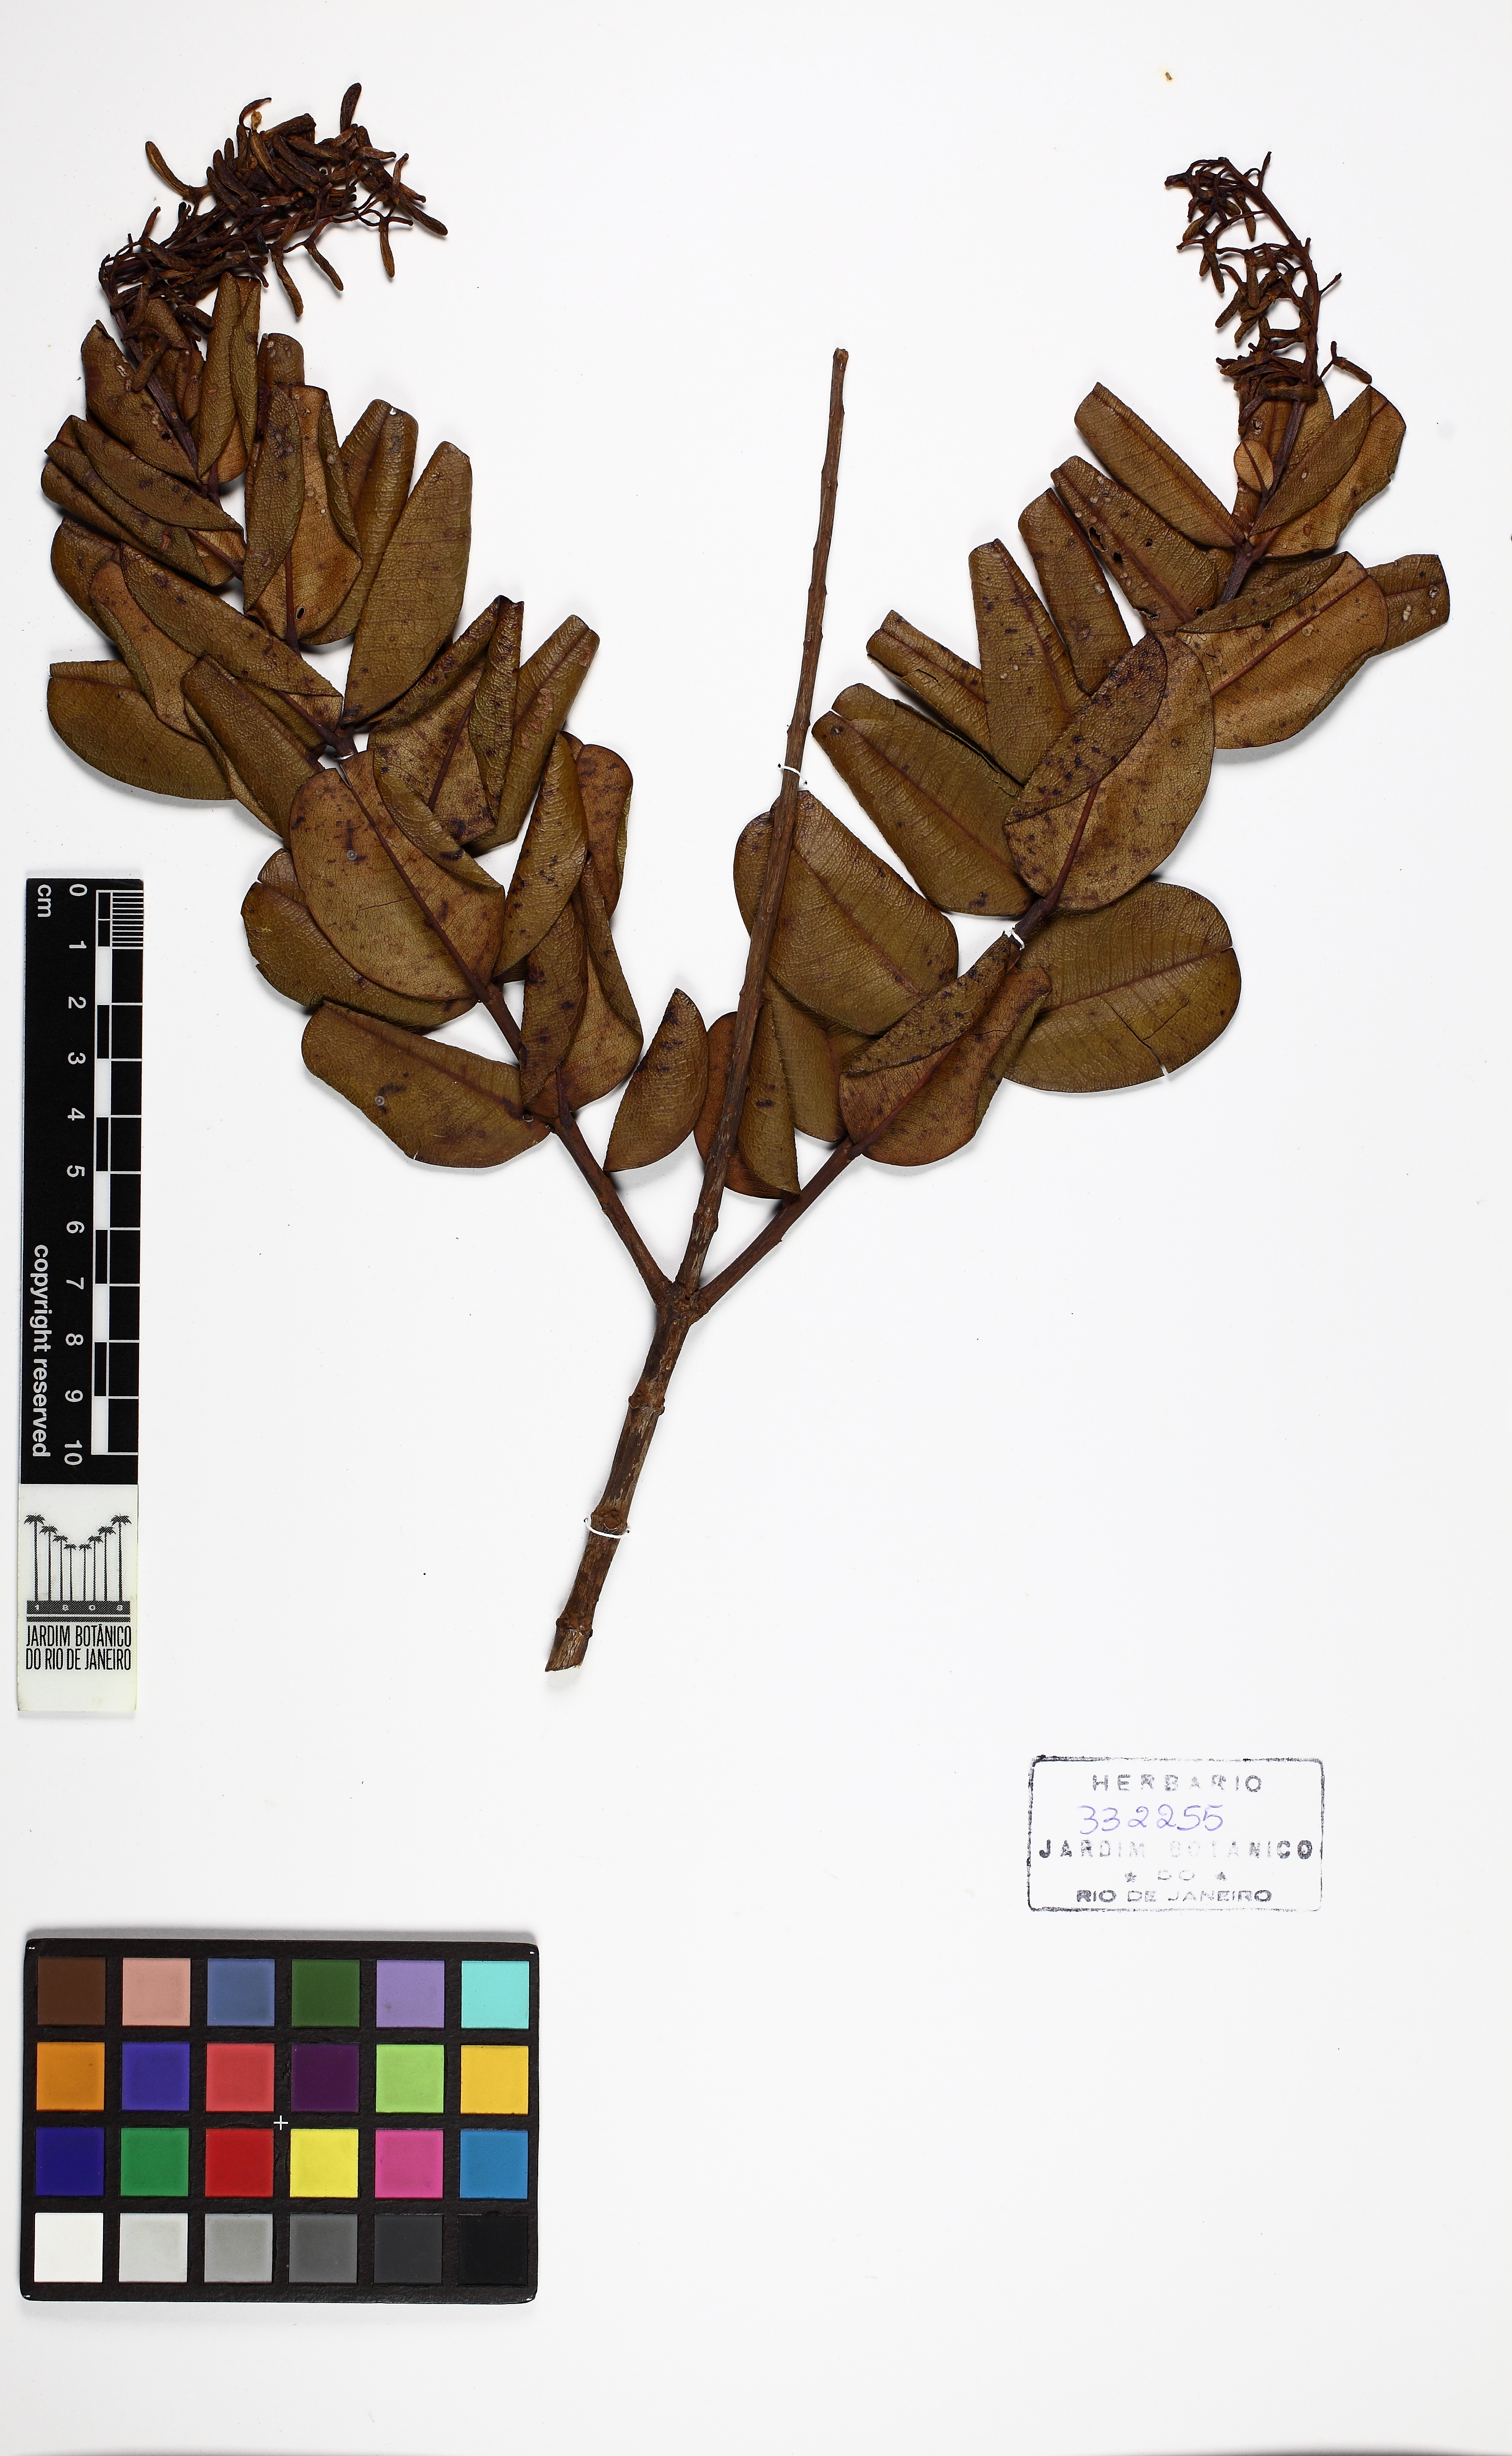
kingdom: Plantae
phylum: Tracheophyta
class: Magnoliopsida
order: Myrtales
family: Vochysiaceae
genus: Vochysia
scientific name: Vochysia rotundifolia
